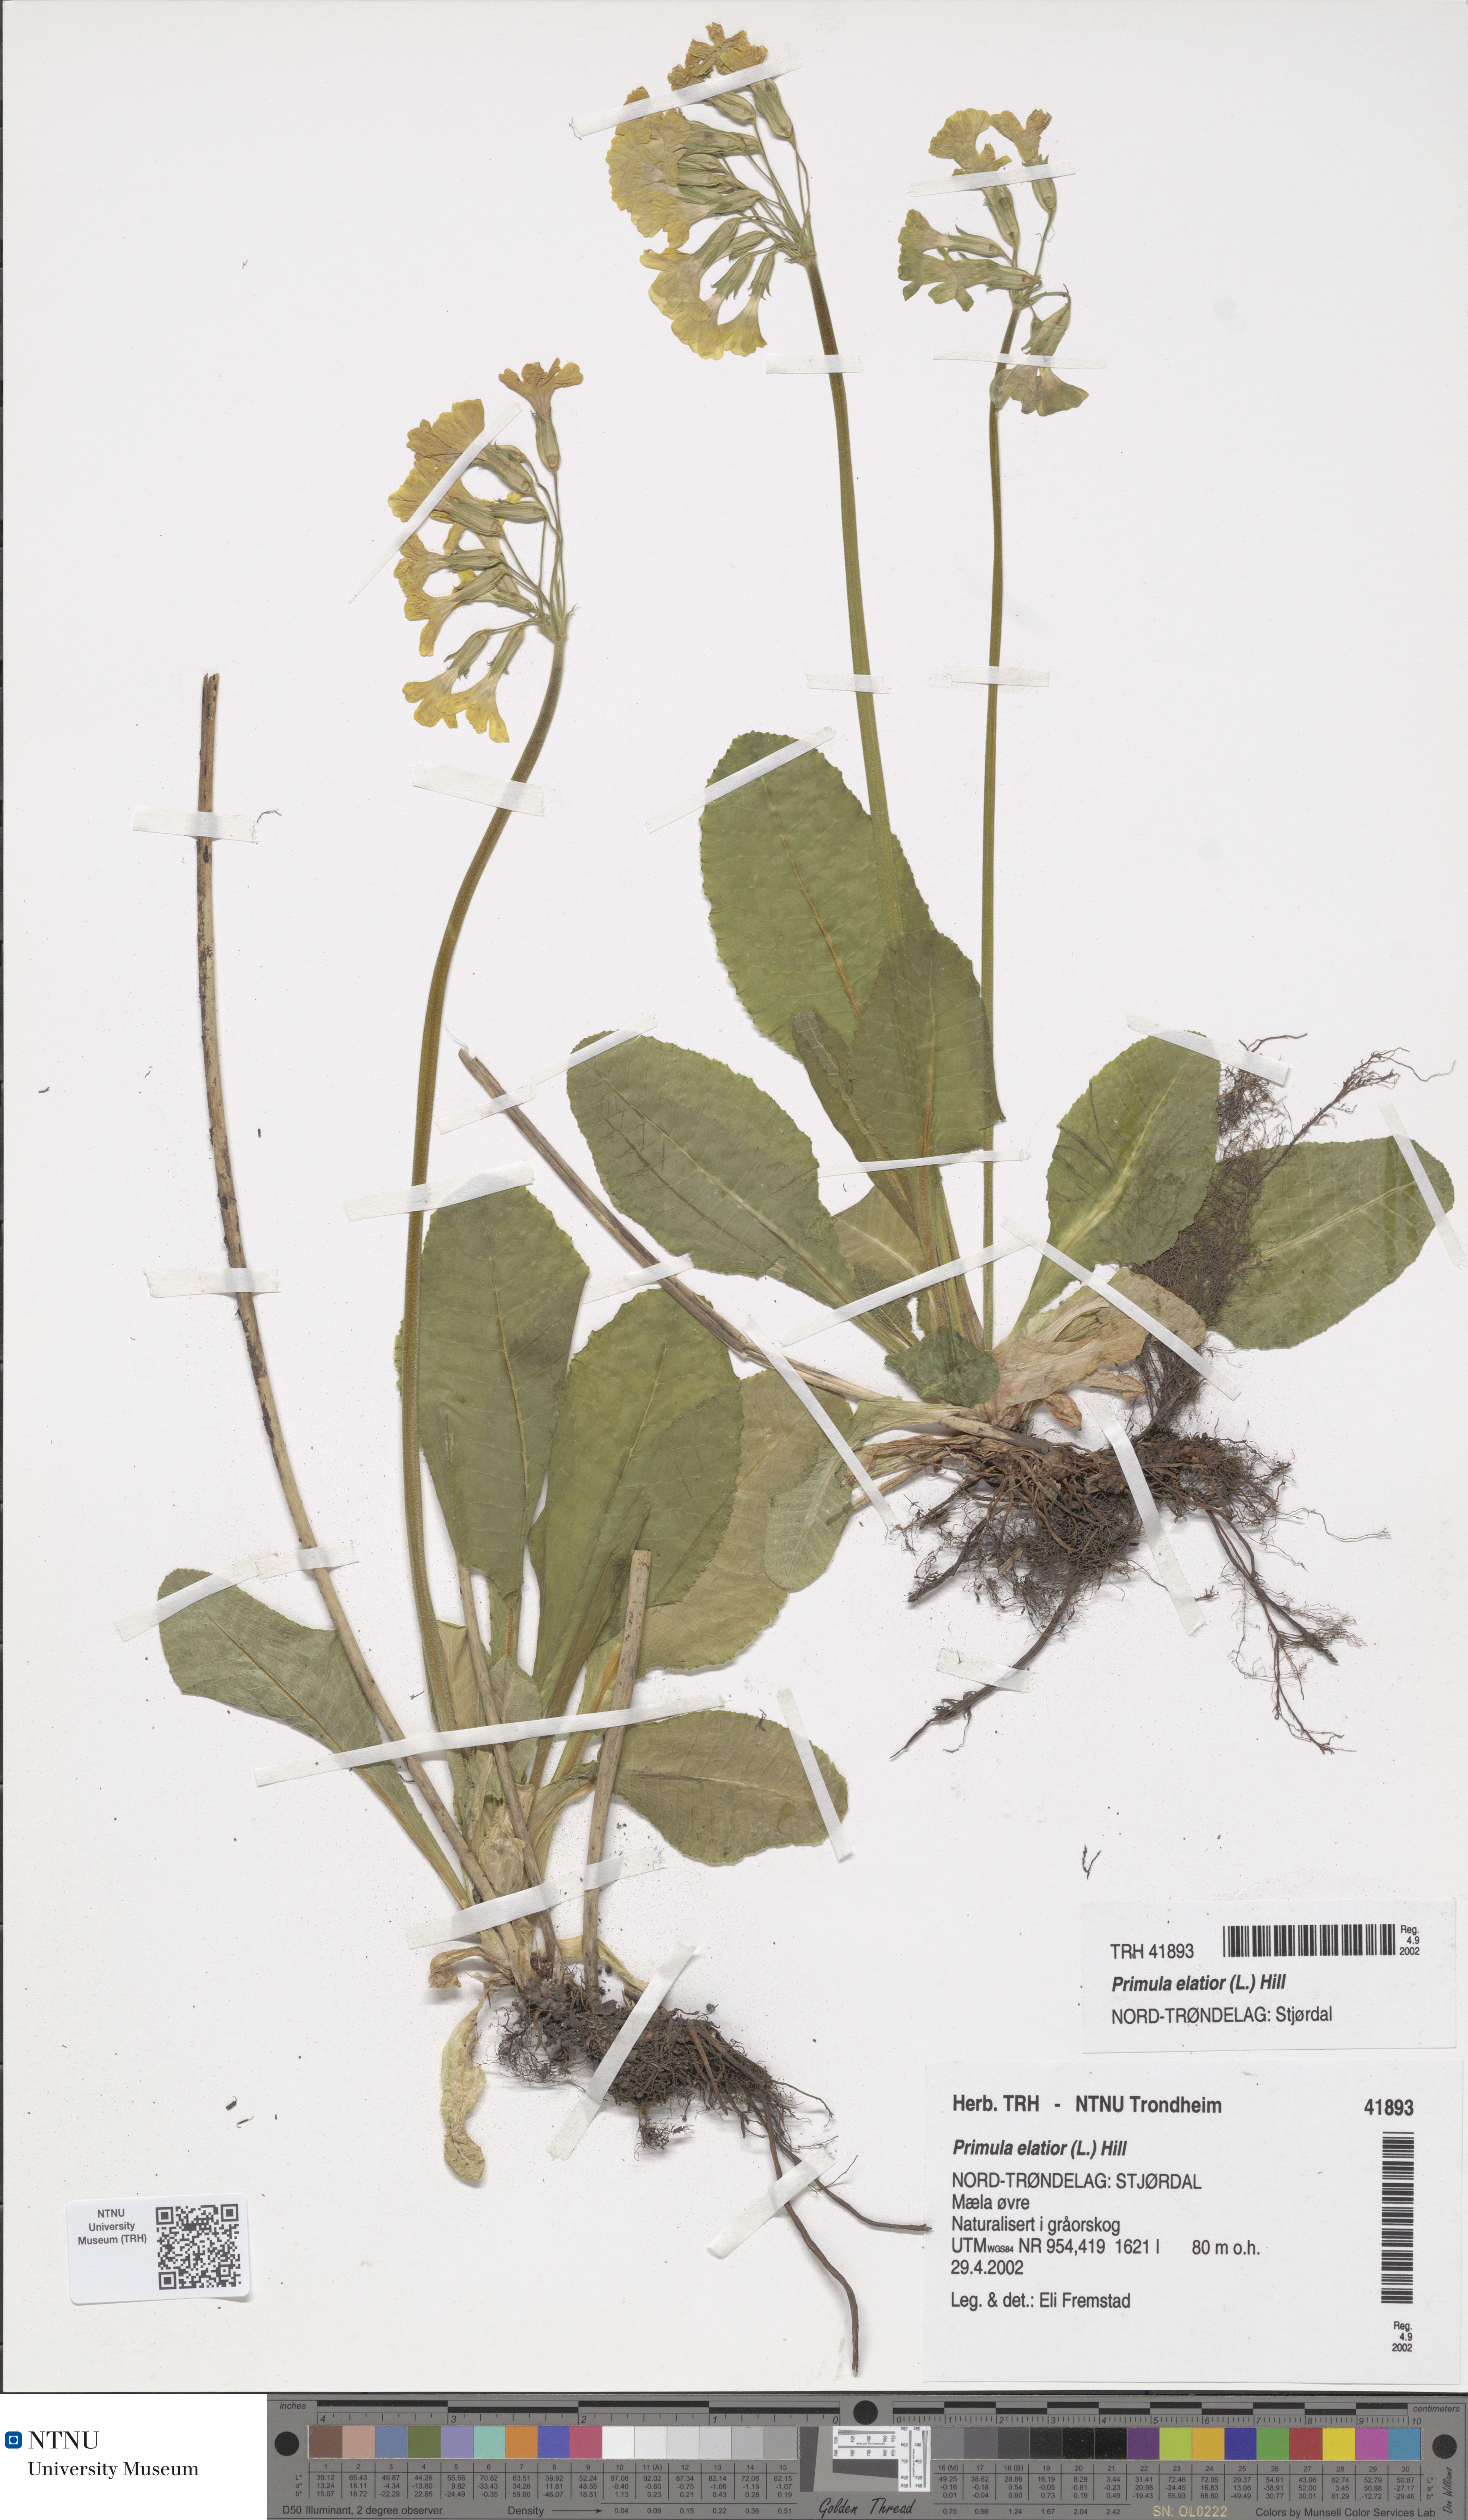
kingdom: Plantae
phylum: Tracheophyta
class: Magnoliopsida
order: Ericales
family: Primulaceae
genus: Primula
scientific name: Primula elatior
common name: Oxlip
